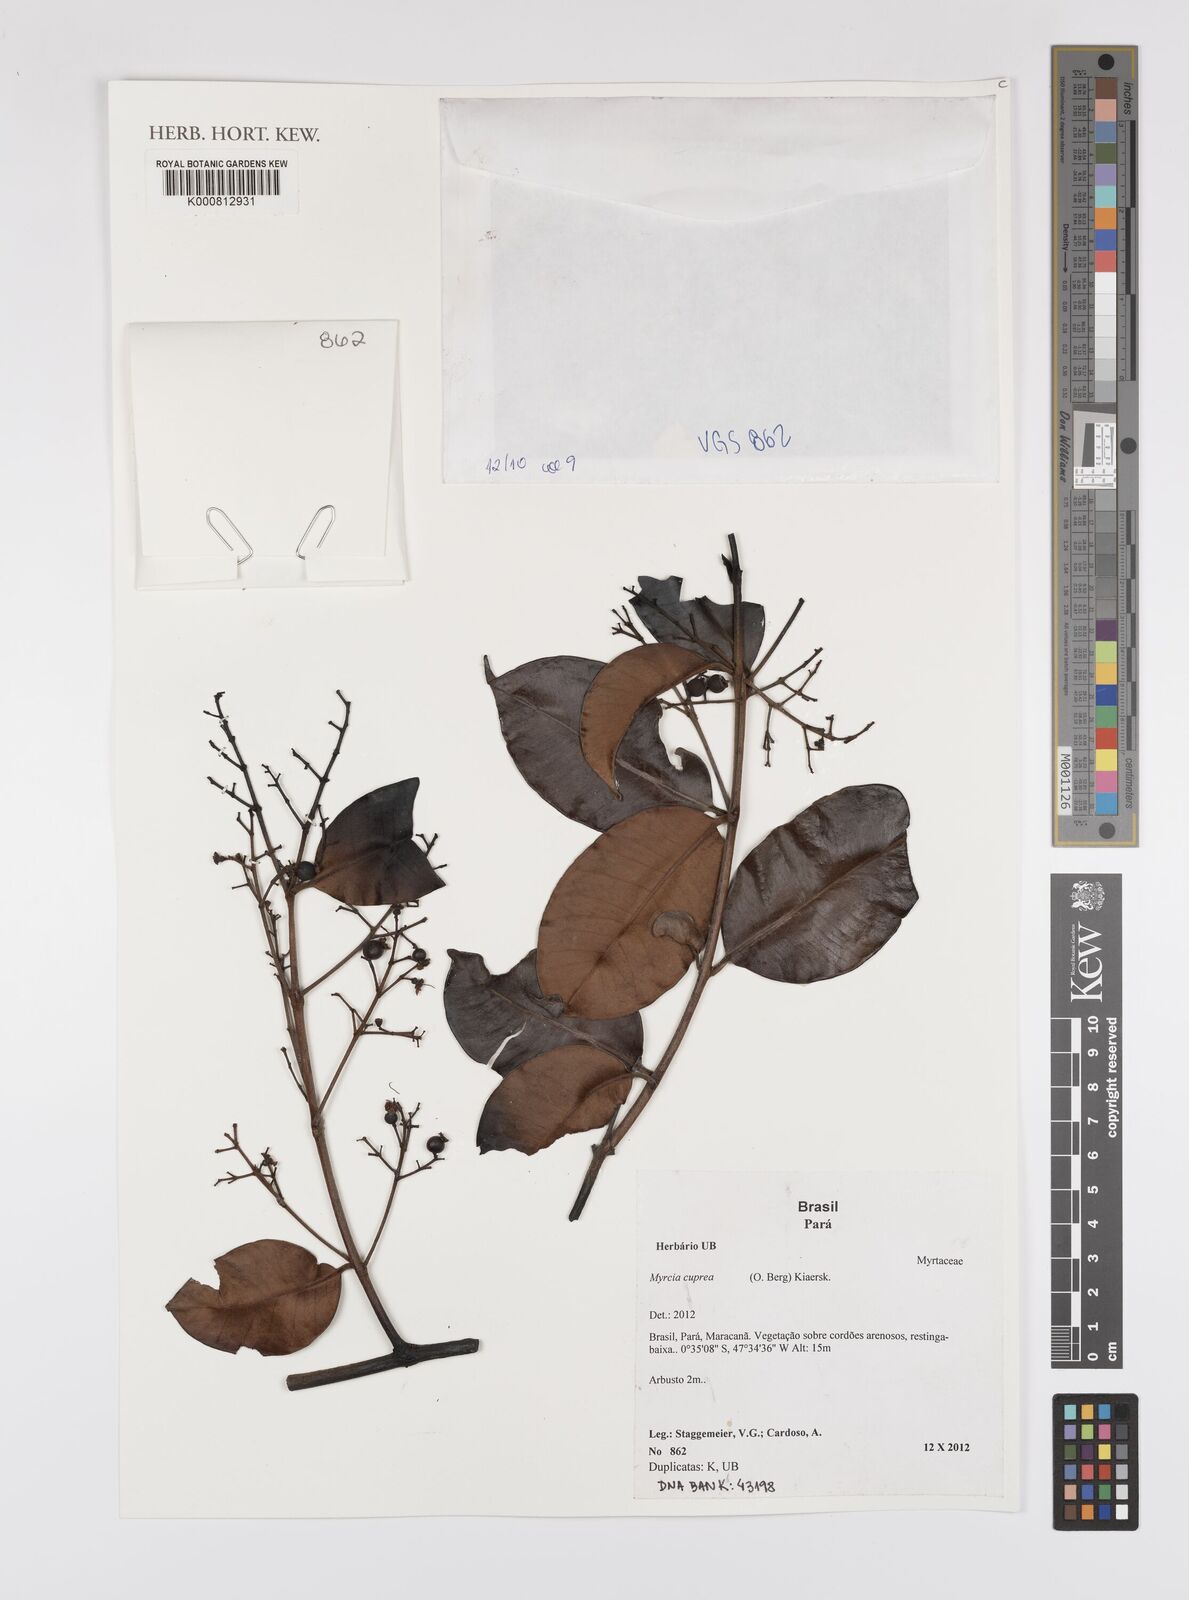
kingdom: Plantae
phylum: Tracheophyta
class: Magnoliopsida
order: Myrtales
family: Myrtaceae
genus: Myrcia
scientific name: Myrcia cuprea
